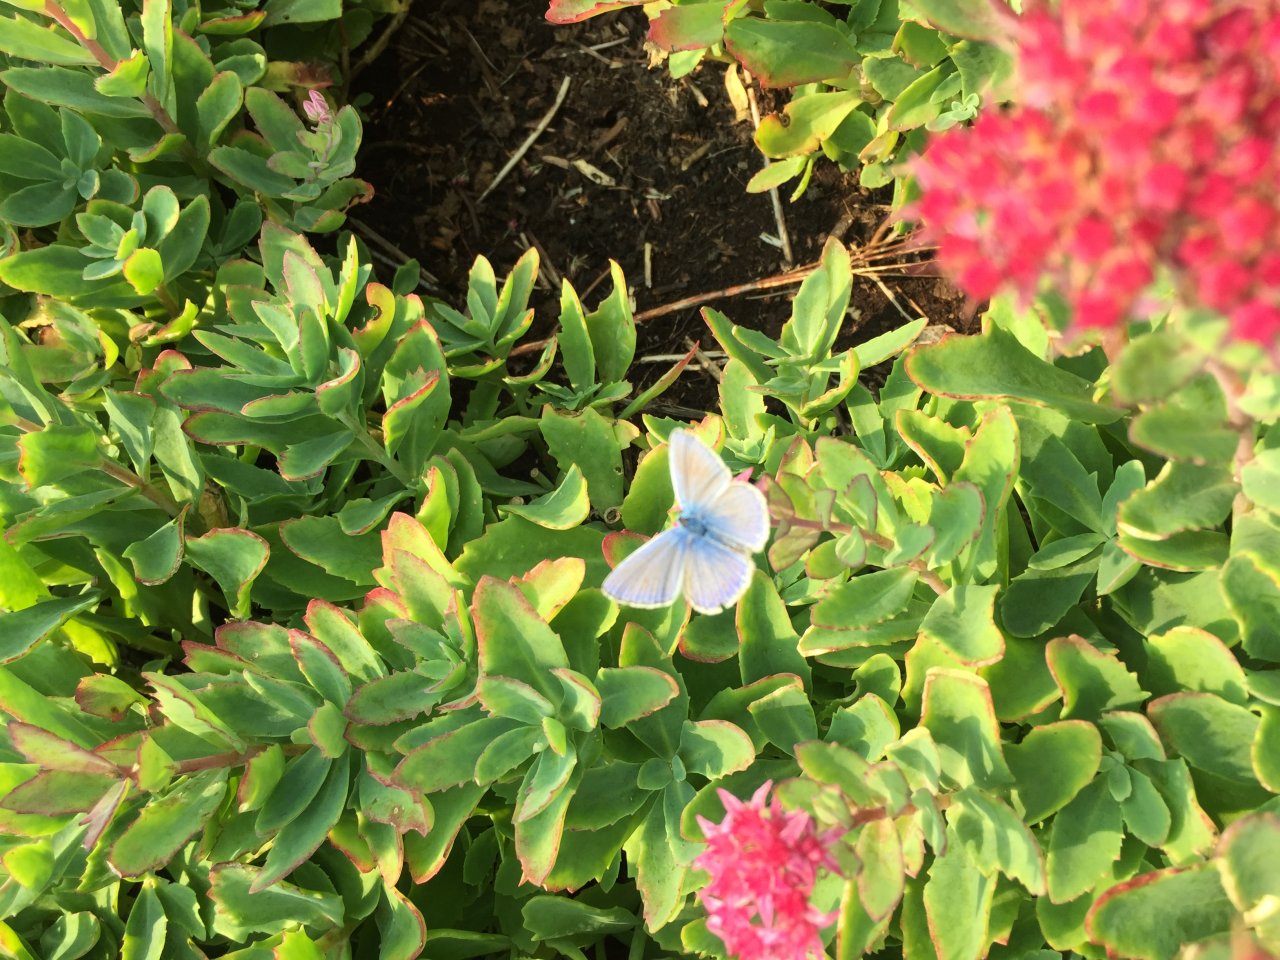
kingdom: Animalia
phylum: Arthropoda
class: Insecta
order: Lepidoptera
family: Lycaenidae
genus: Polyommatus
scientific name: Polyommatus icarus
